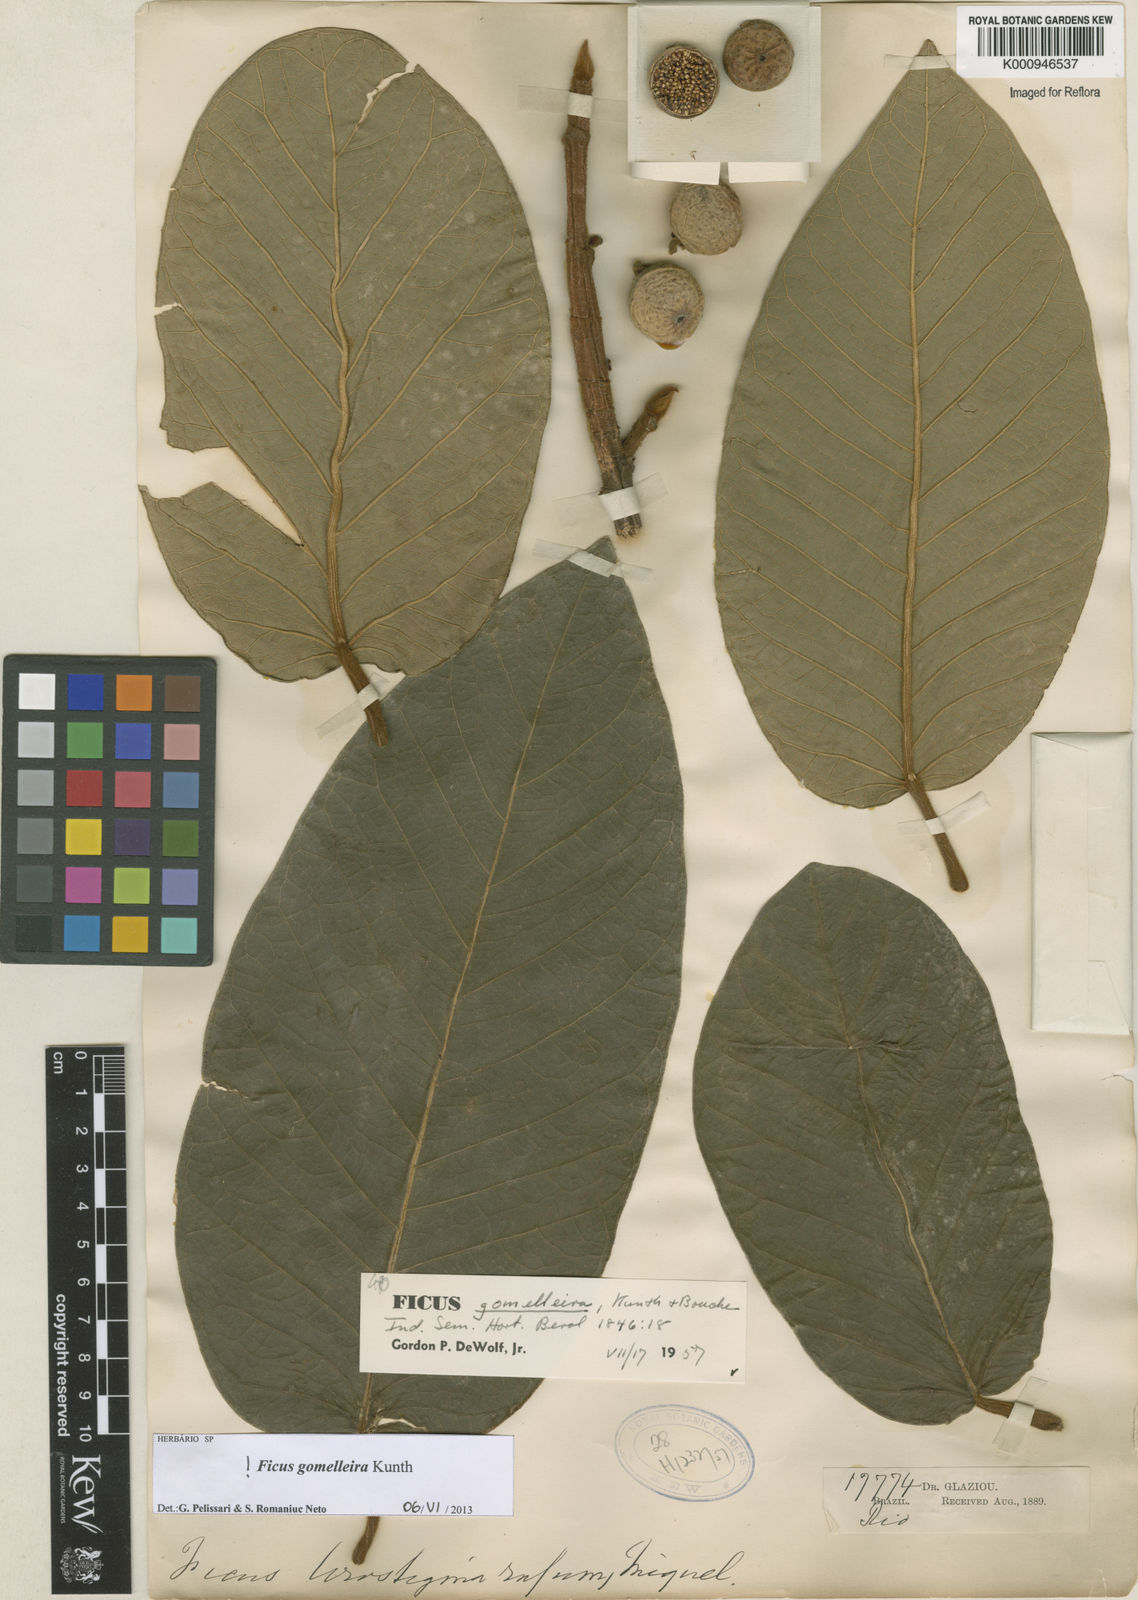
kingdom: Plantae
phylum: Tracheophyta
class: Magnoliopsida
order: Rosales
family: Moraceae
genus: Ficus
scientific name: Ficus gomelleira
